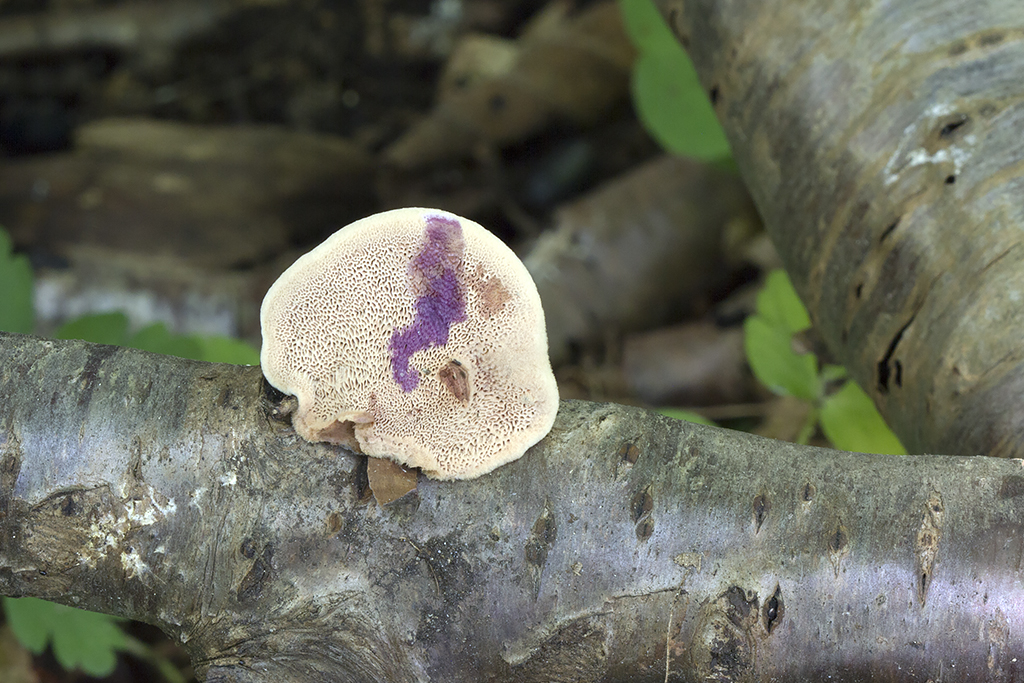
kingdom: Fungi
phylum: Basidiomycota
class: Agaricomycetes
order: Polyporales
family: Phanerochaetaceae
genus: Hapalopilus
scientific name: Hapalopilus rutilans
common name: rødlig okkerporesvamp
